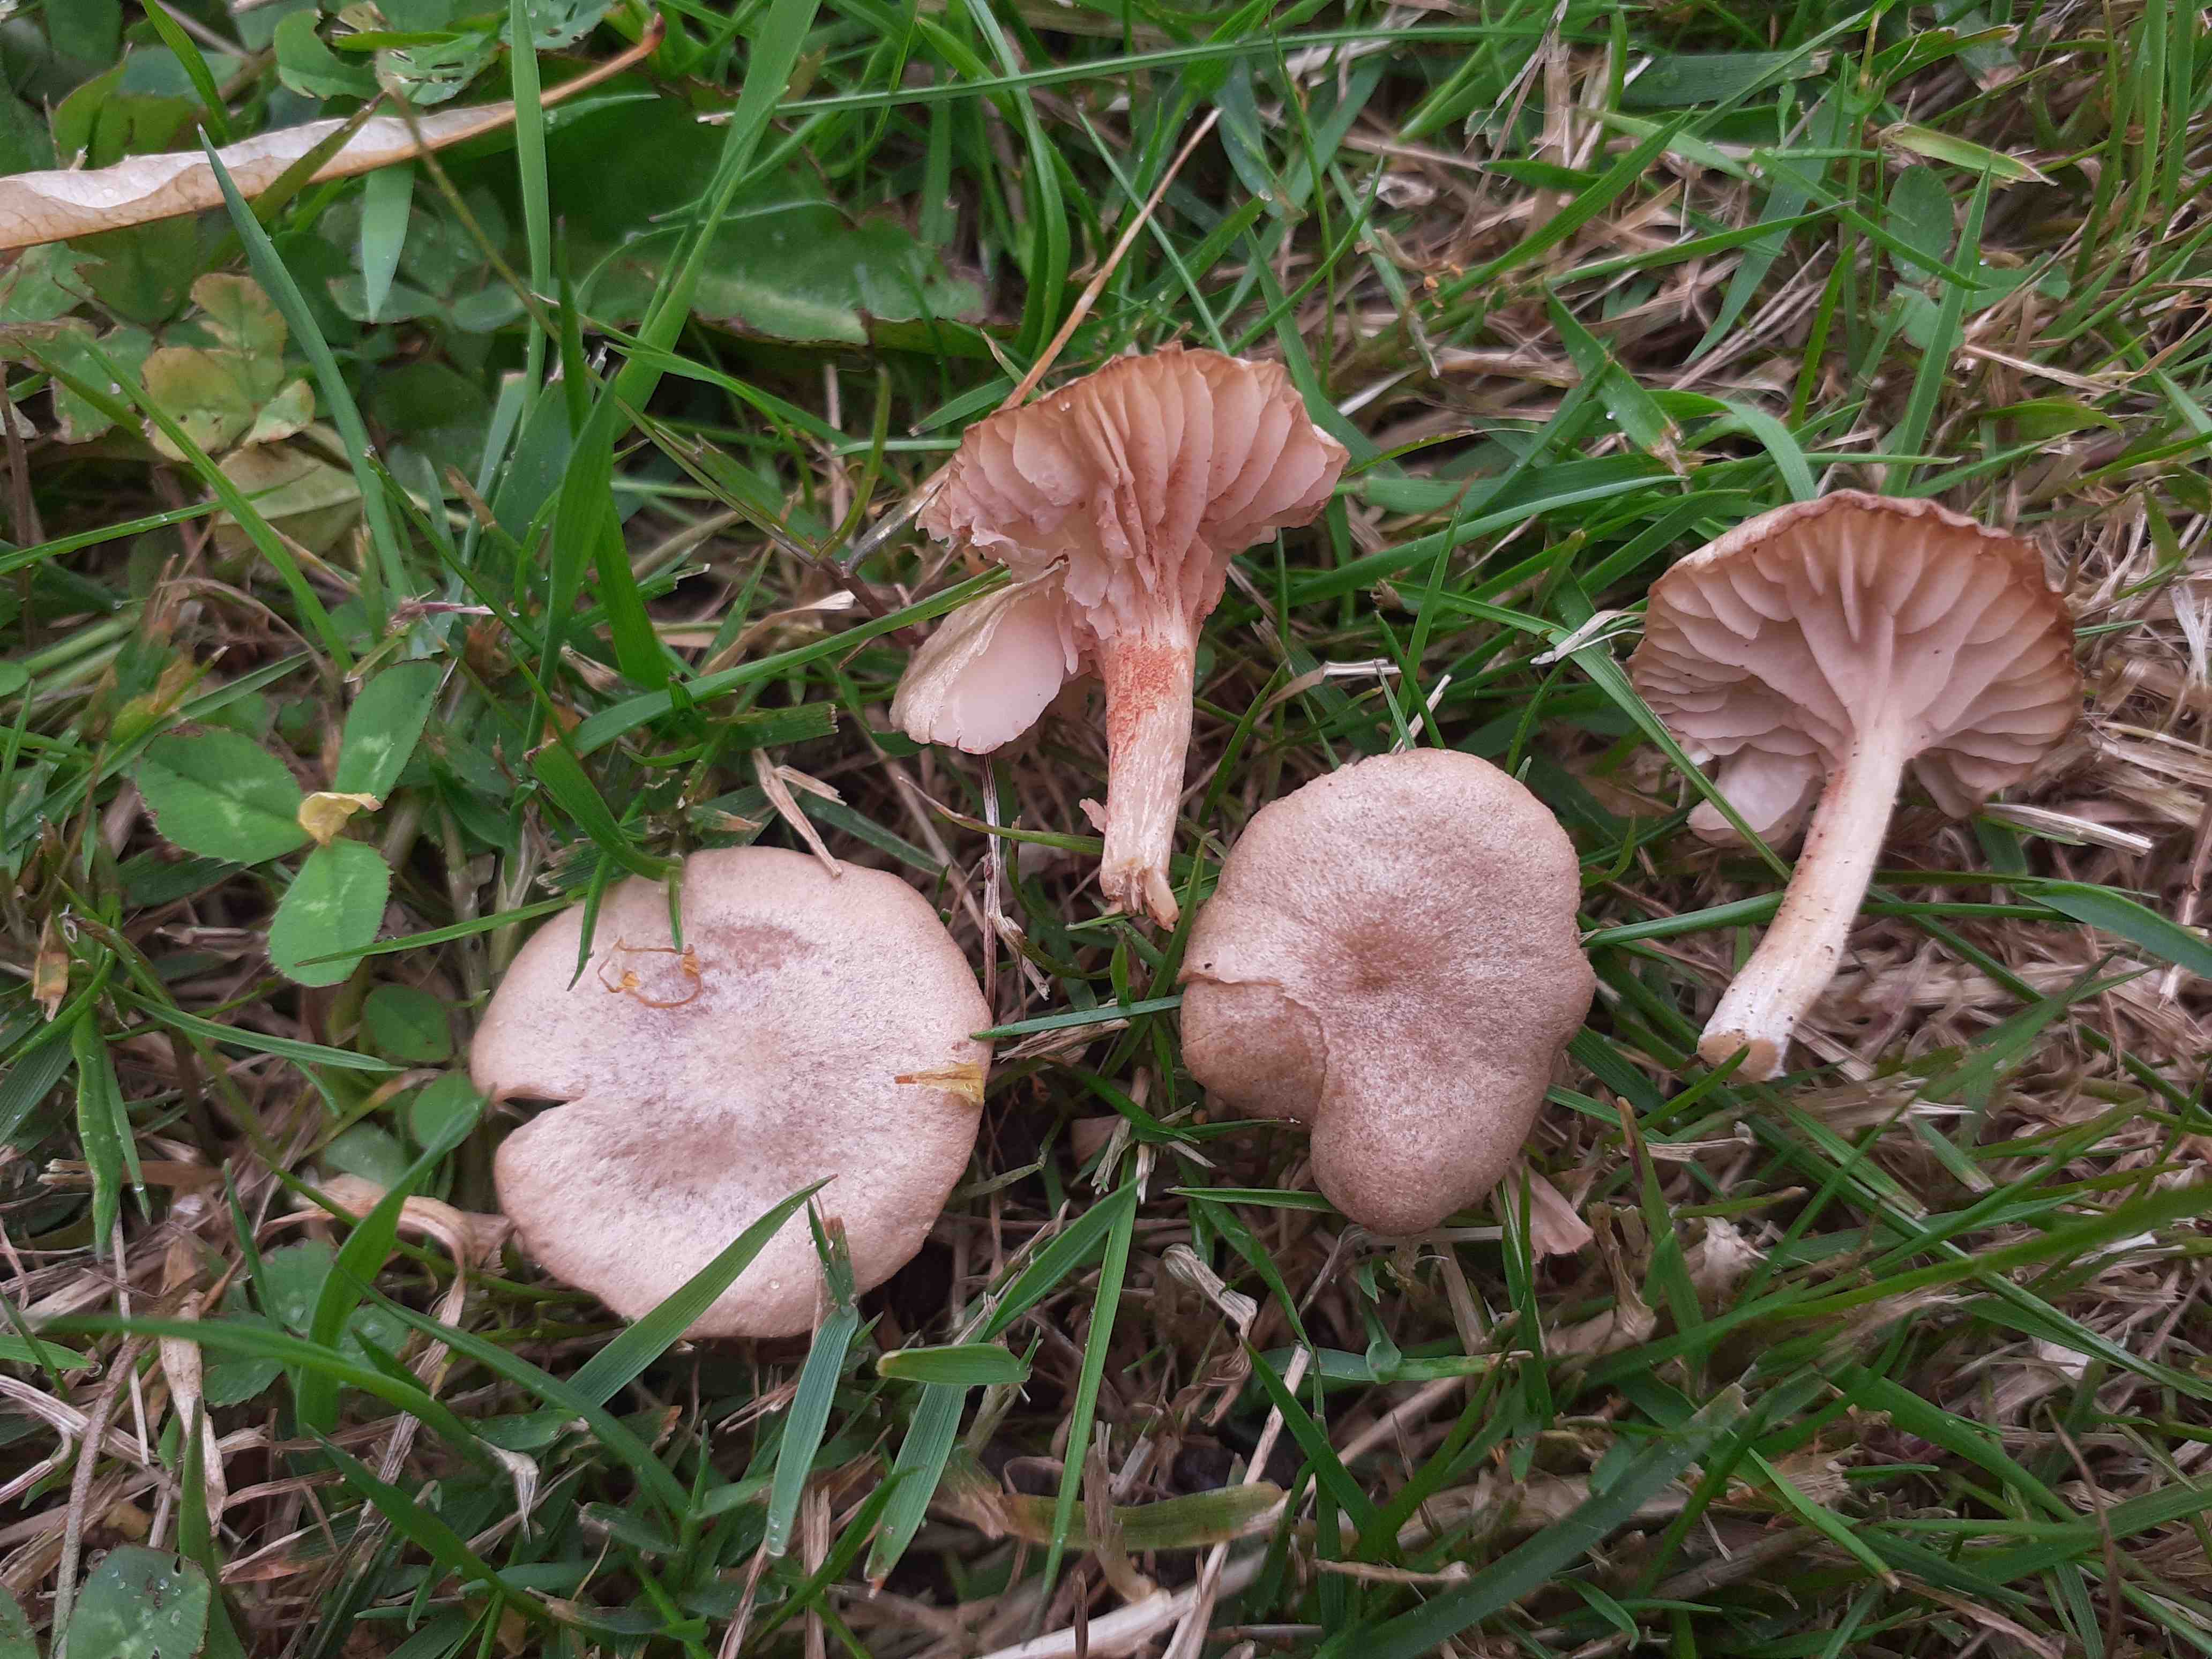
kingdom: Fungi
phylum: Basidiomycota
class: Agaricomycetes
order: Agaricales
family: Entolomataceae
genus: Entoloma
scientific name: Entoloma neglectum
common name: bleg rødblad
